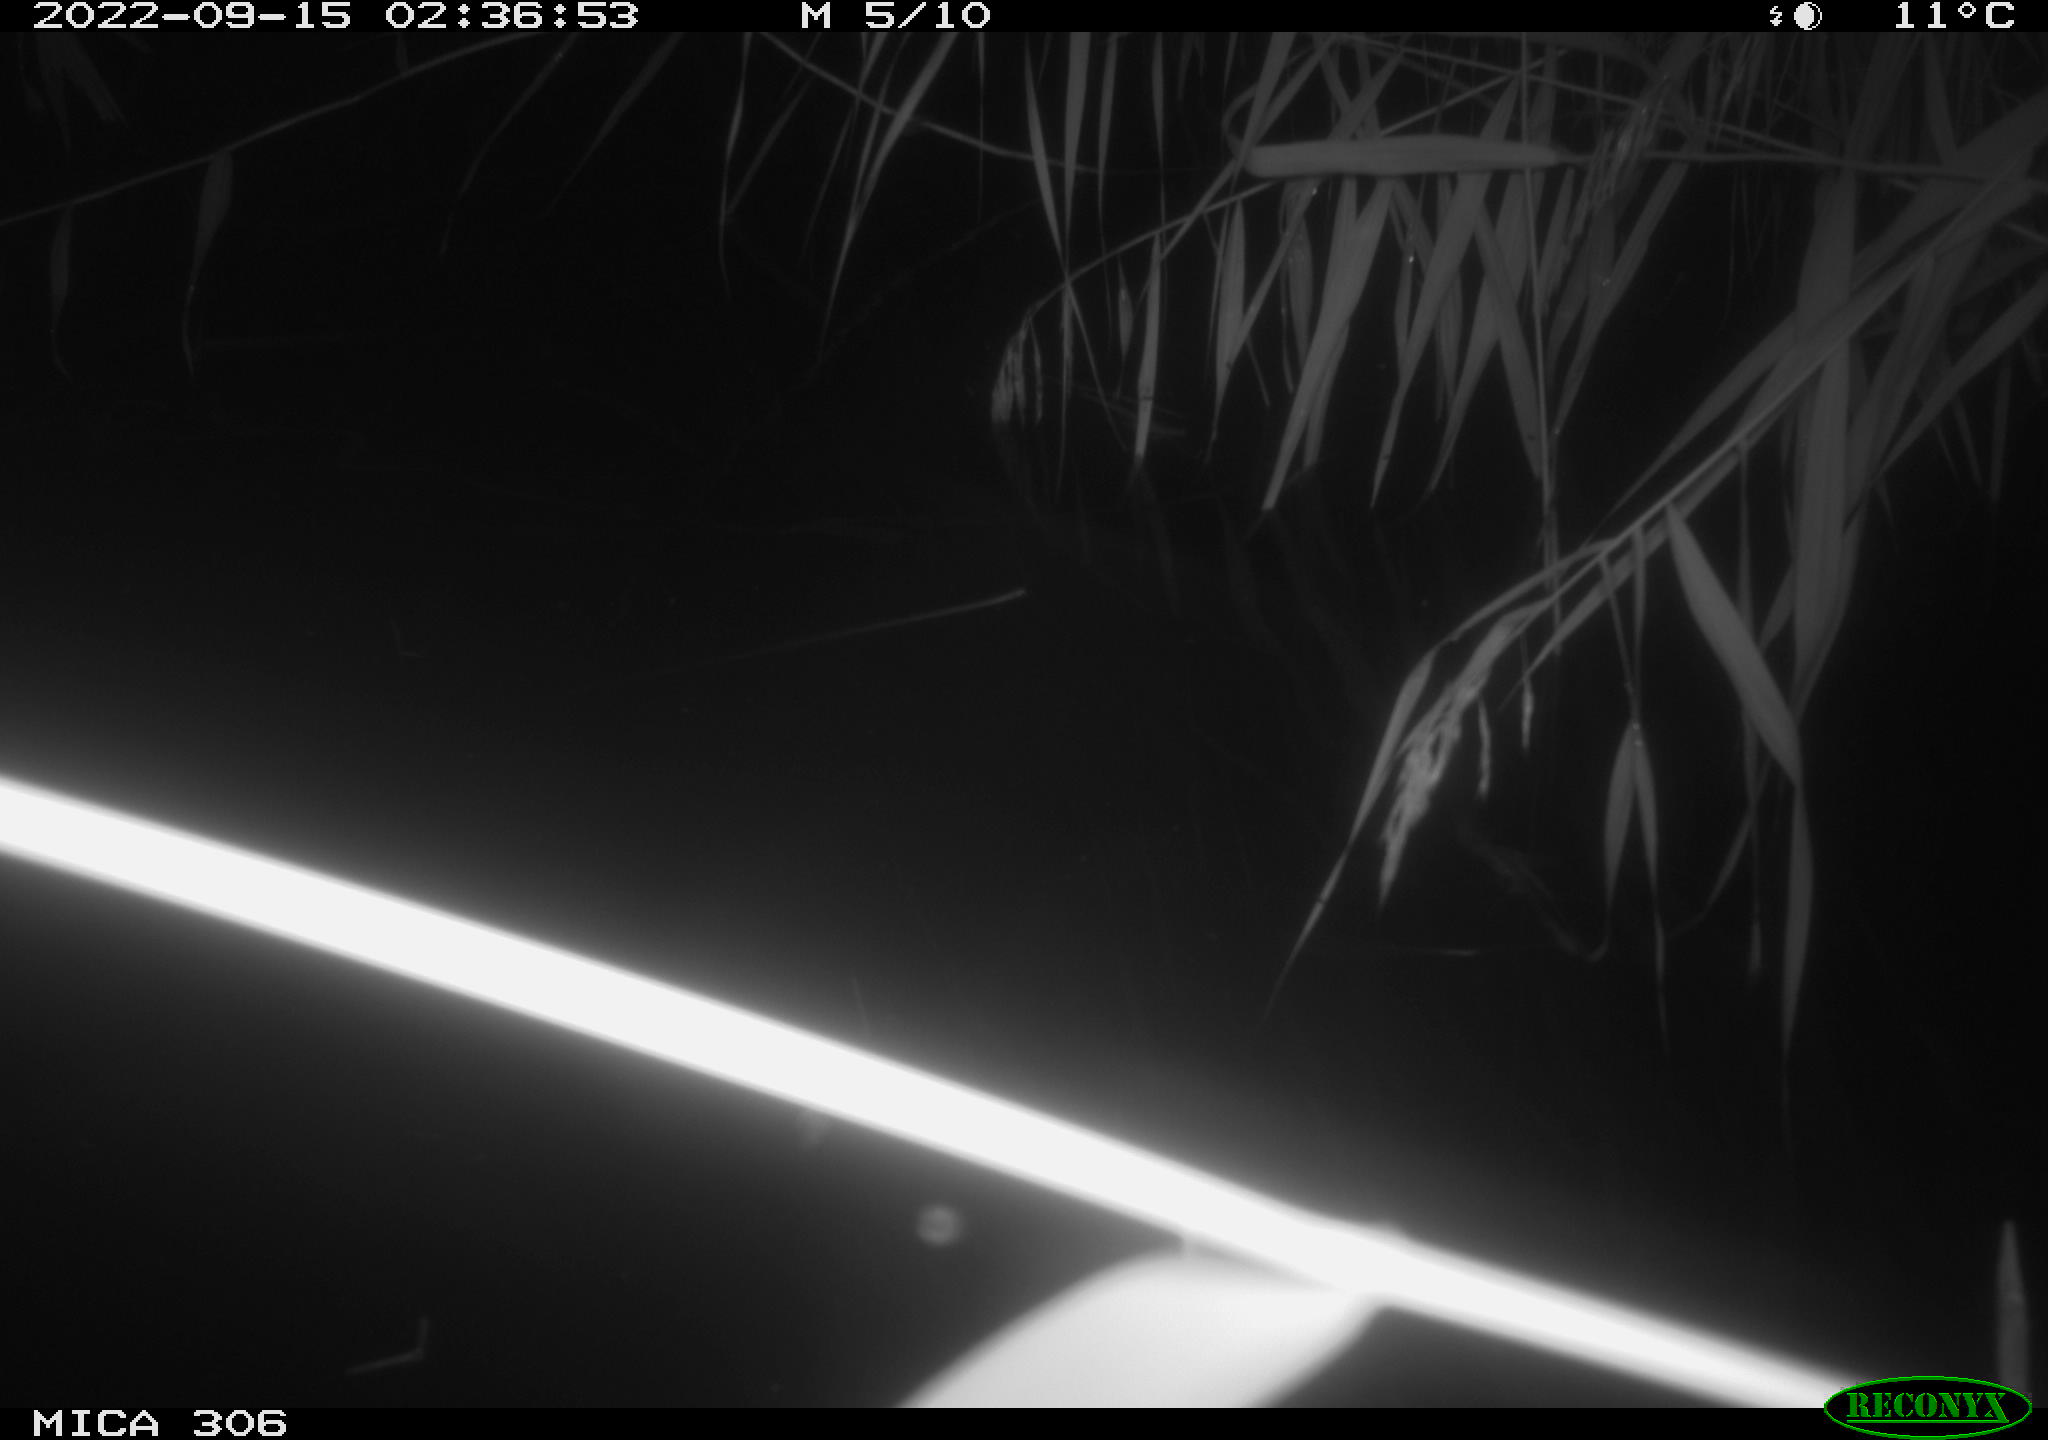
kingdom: Animalia
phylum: Chordata
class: Mammalia
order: Rodentia
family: Muridae
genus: Rattus
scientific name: Rattus norvegicus
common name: Brown rat
